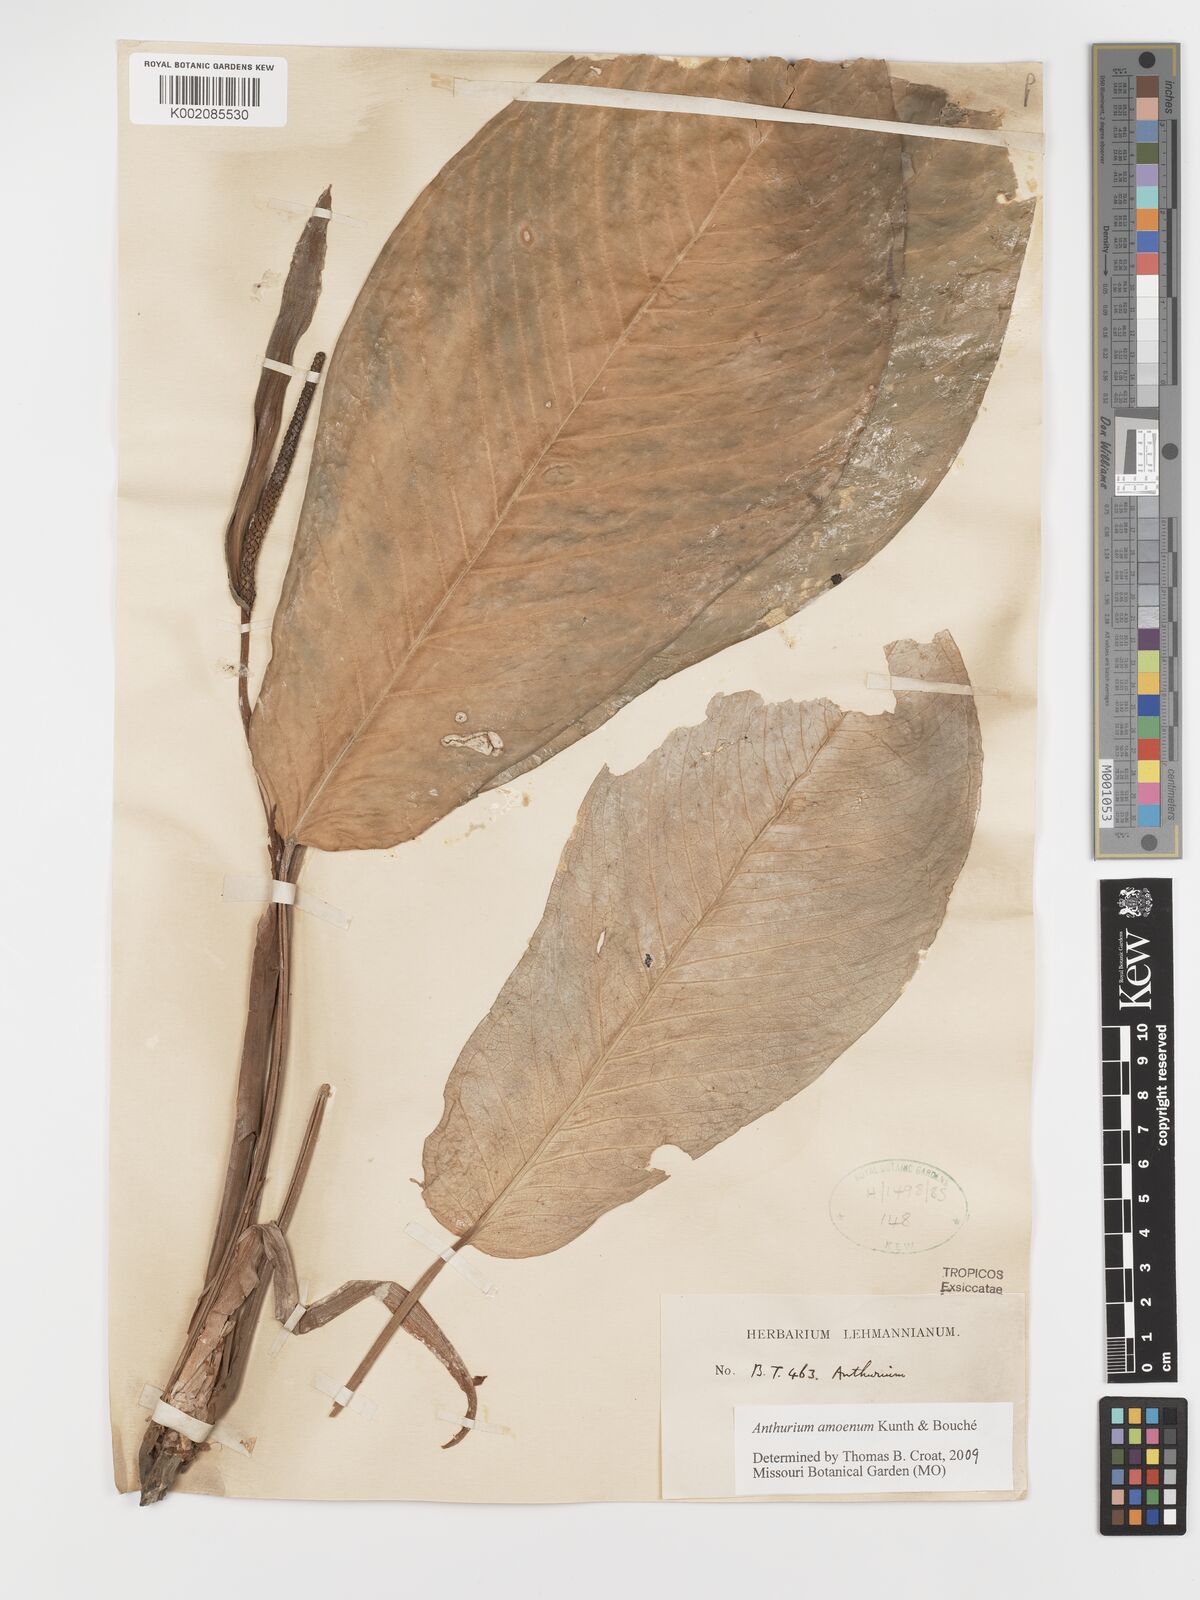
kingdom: Plantae
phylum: Tracheophyta
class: Liliopsida
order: Alismatales
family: Araceae
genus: Anthurium
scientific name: Anthurium amoenum
